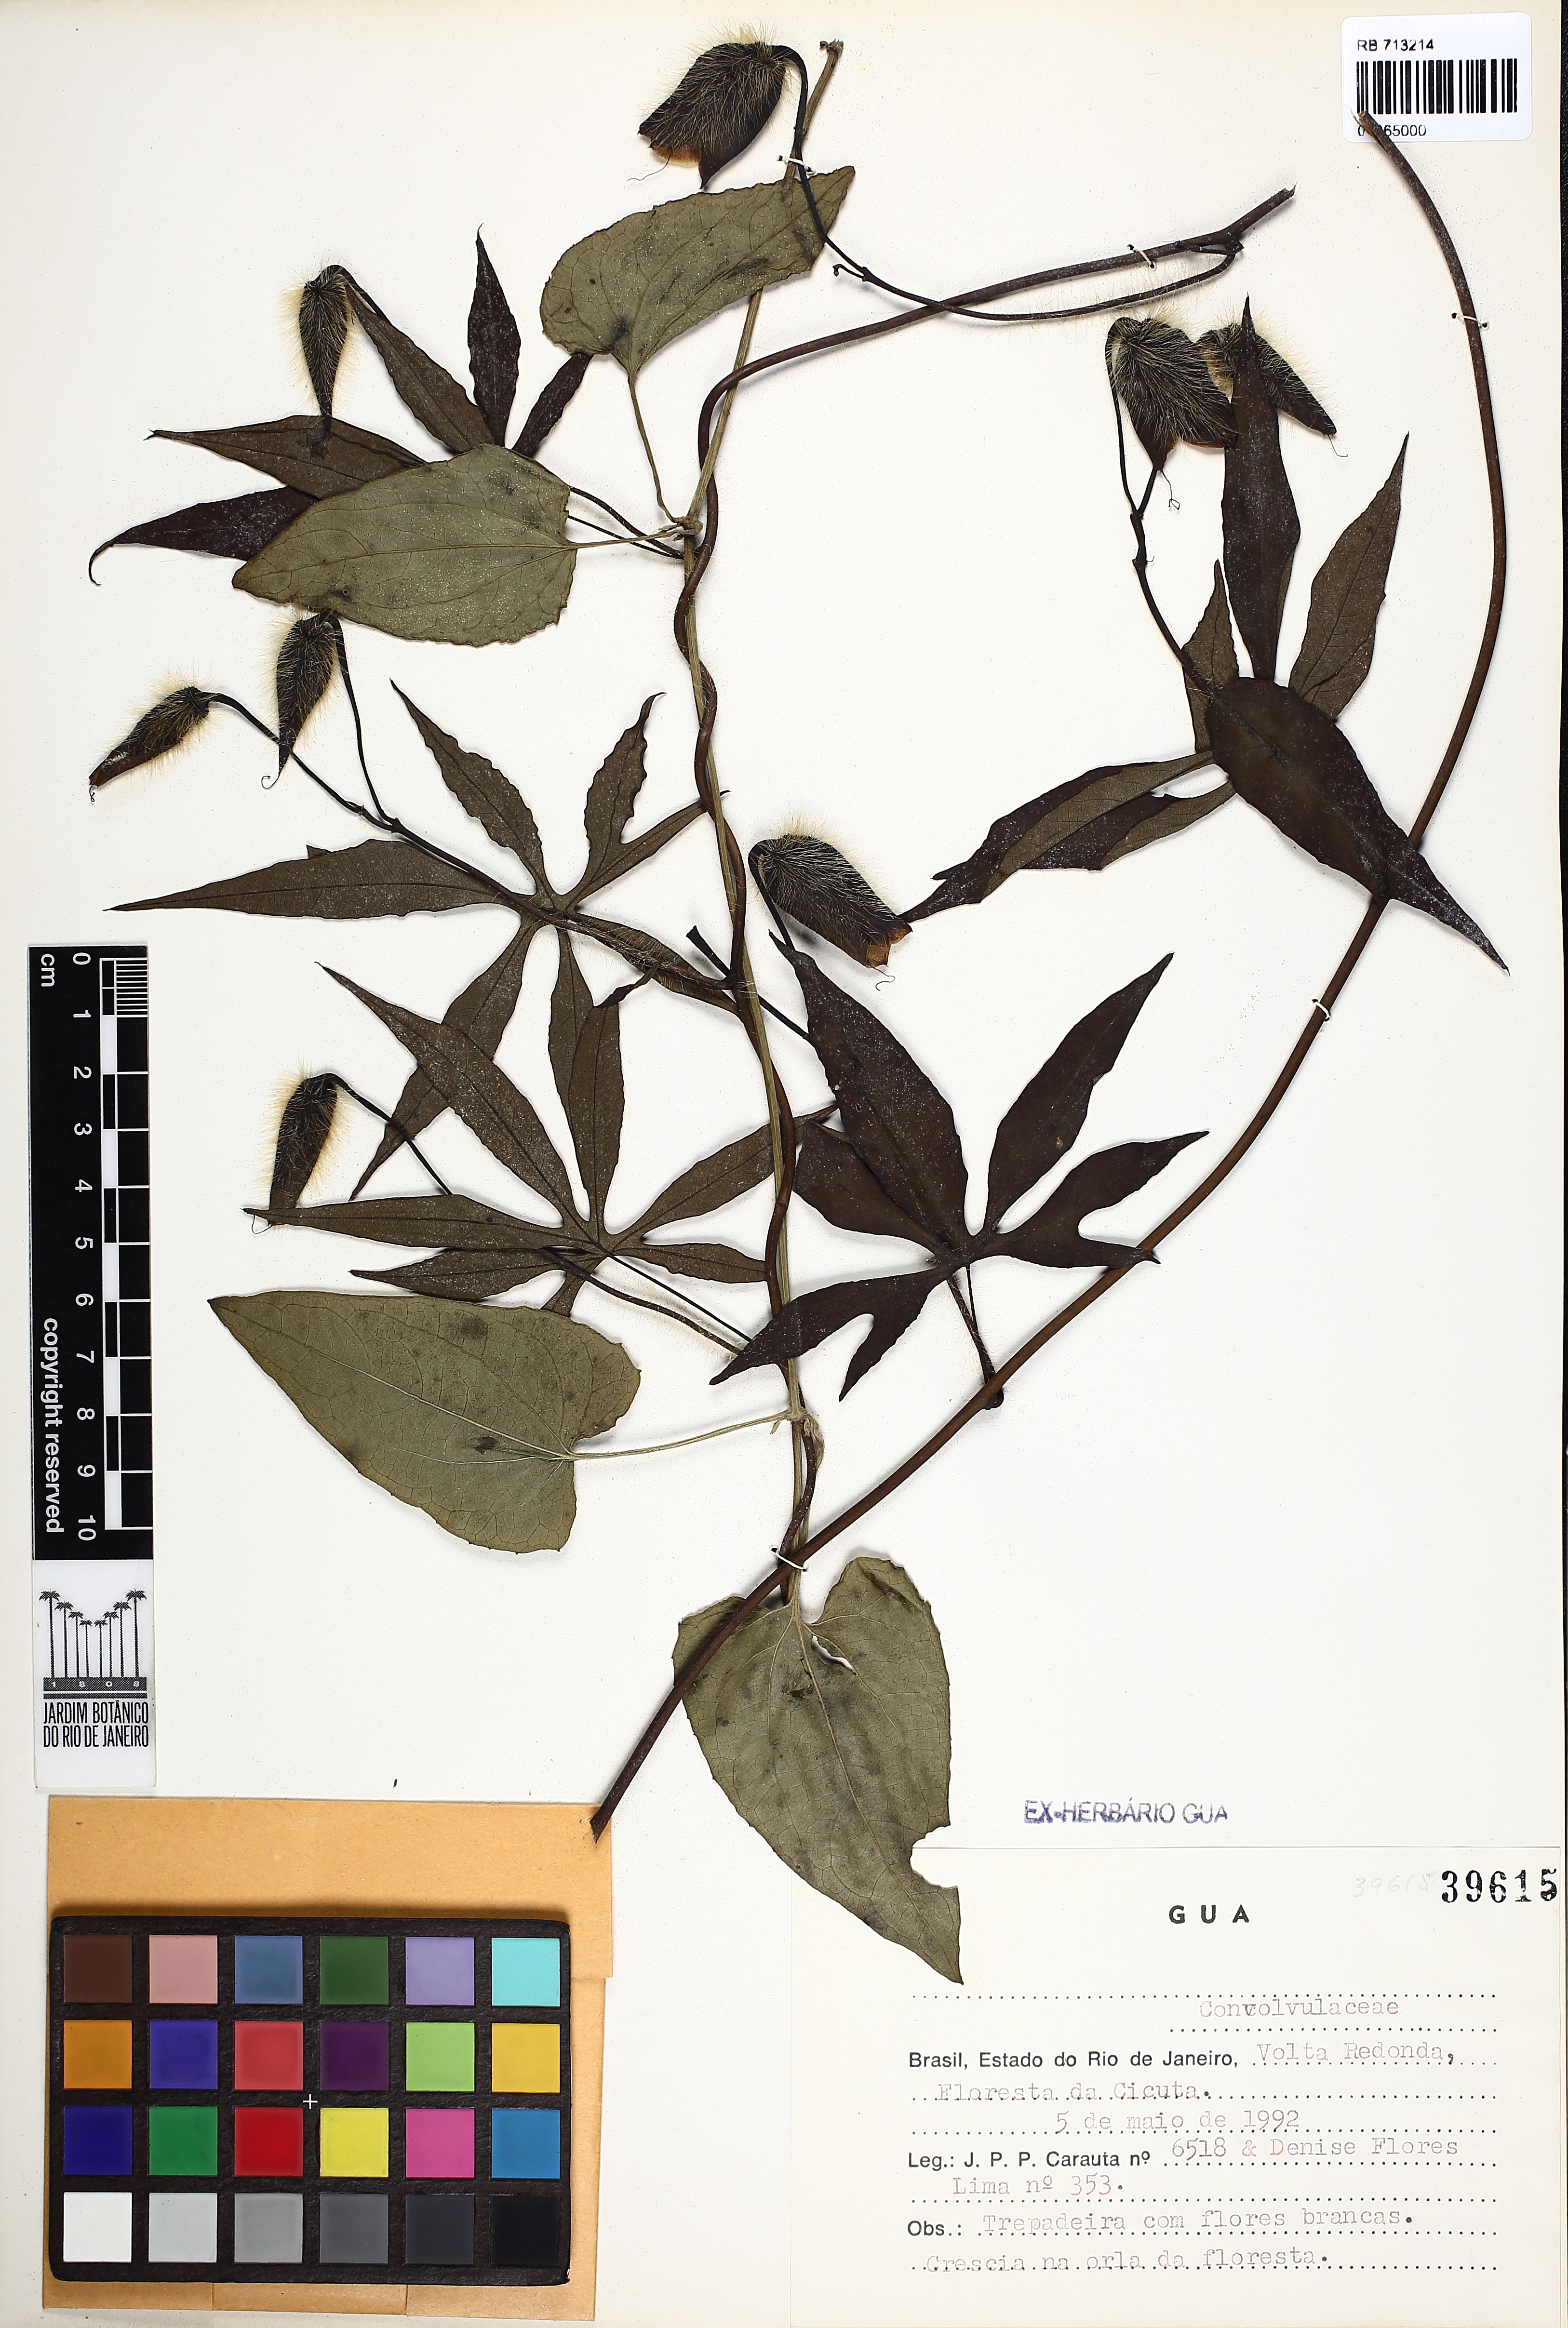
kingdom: Plantae
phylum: Tracheophyta
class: Magnoliopsida
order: Solanales
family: Convolvulaceae
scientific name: Convolvulaceae
